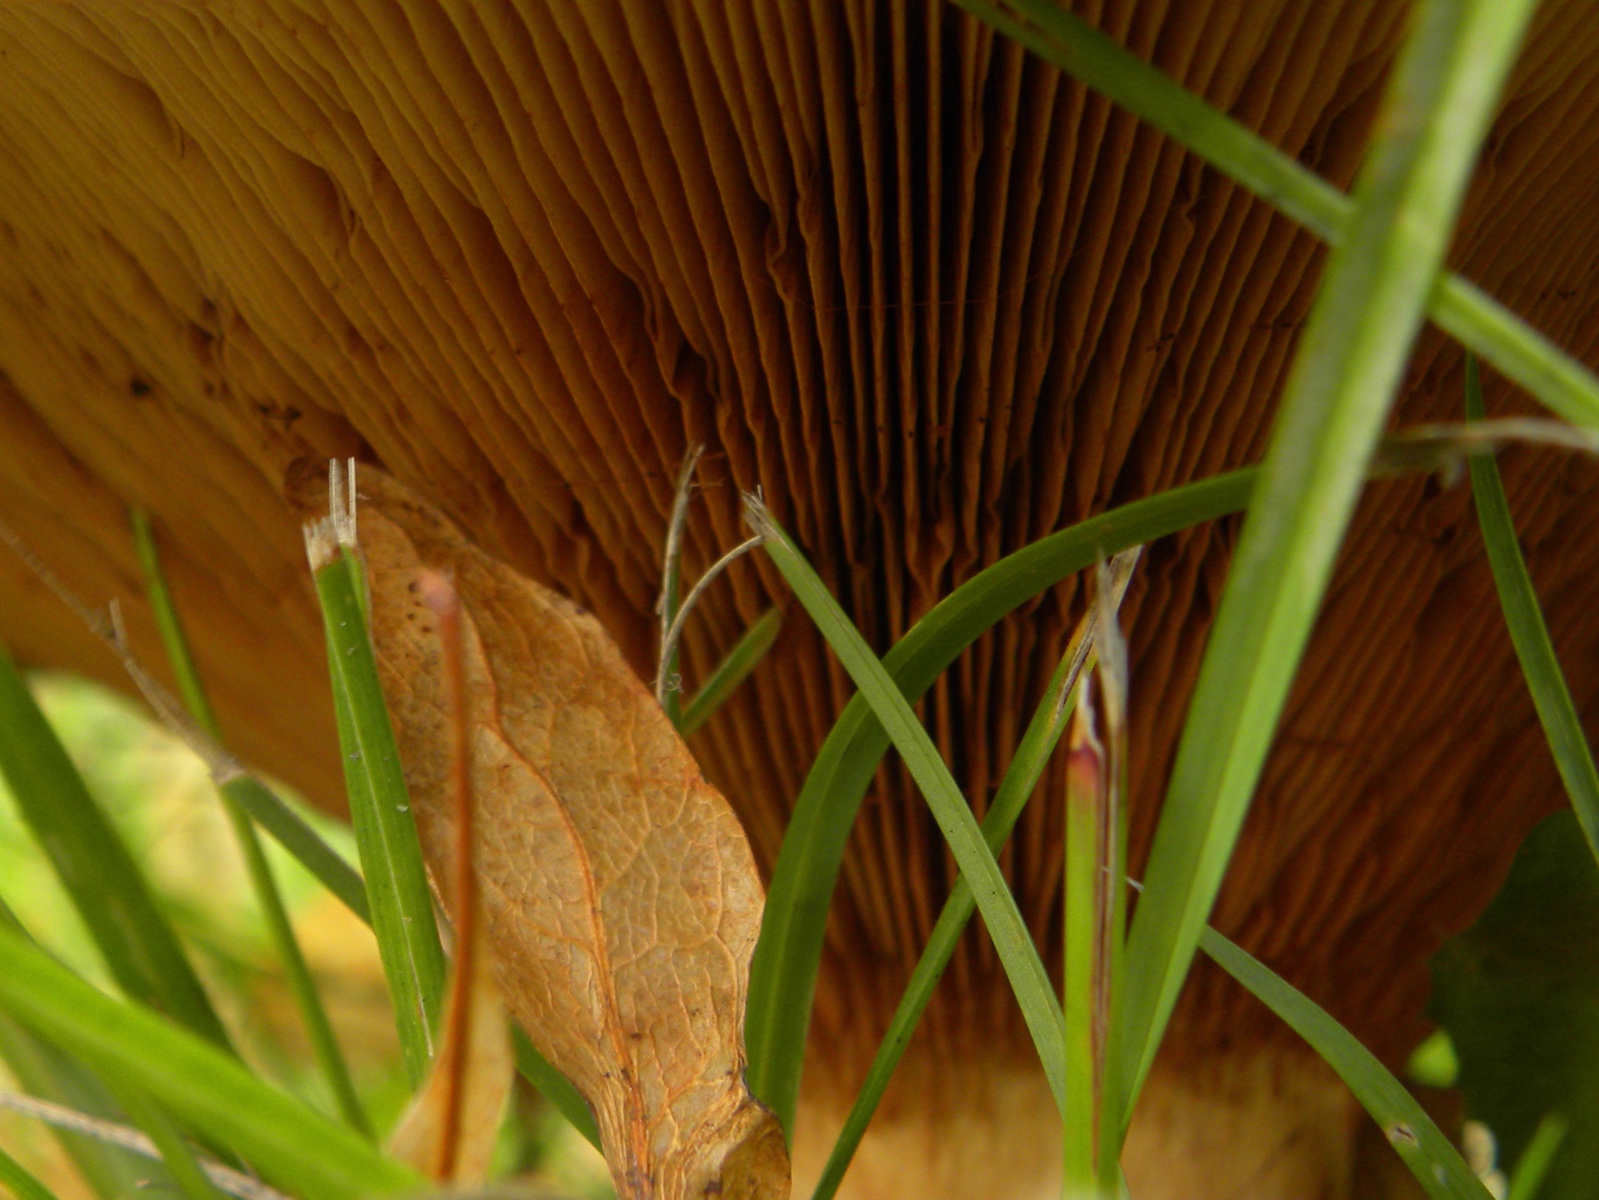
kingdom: Fungi
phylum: Basidiomycota
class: Agaricomycetes
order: Boletales
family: Paxillaceae
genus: Paxillus
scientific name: Paxillus
